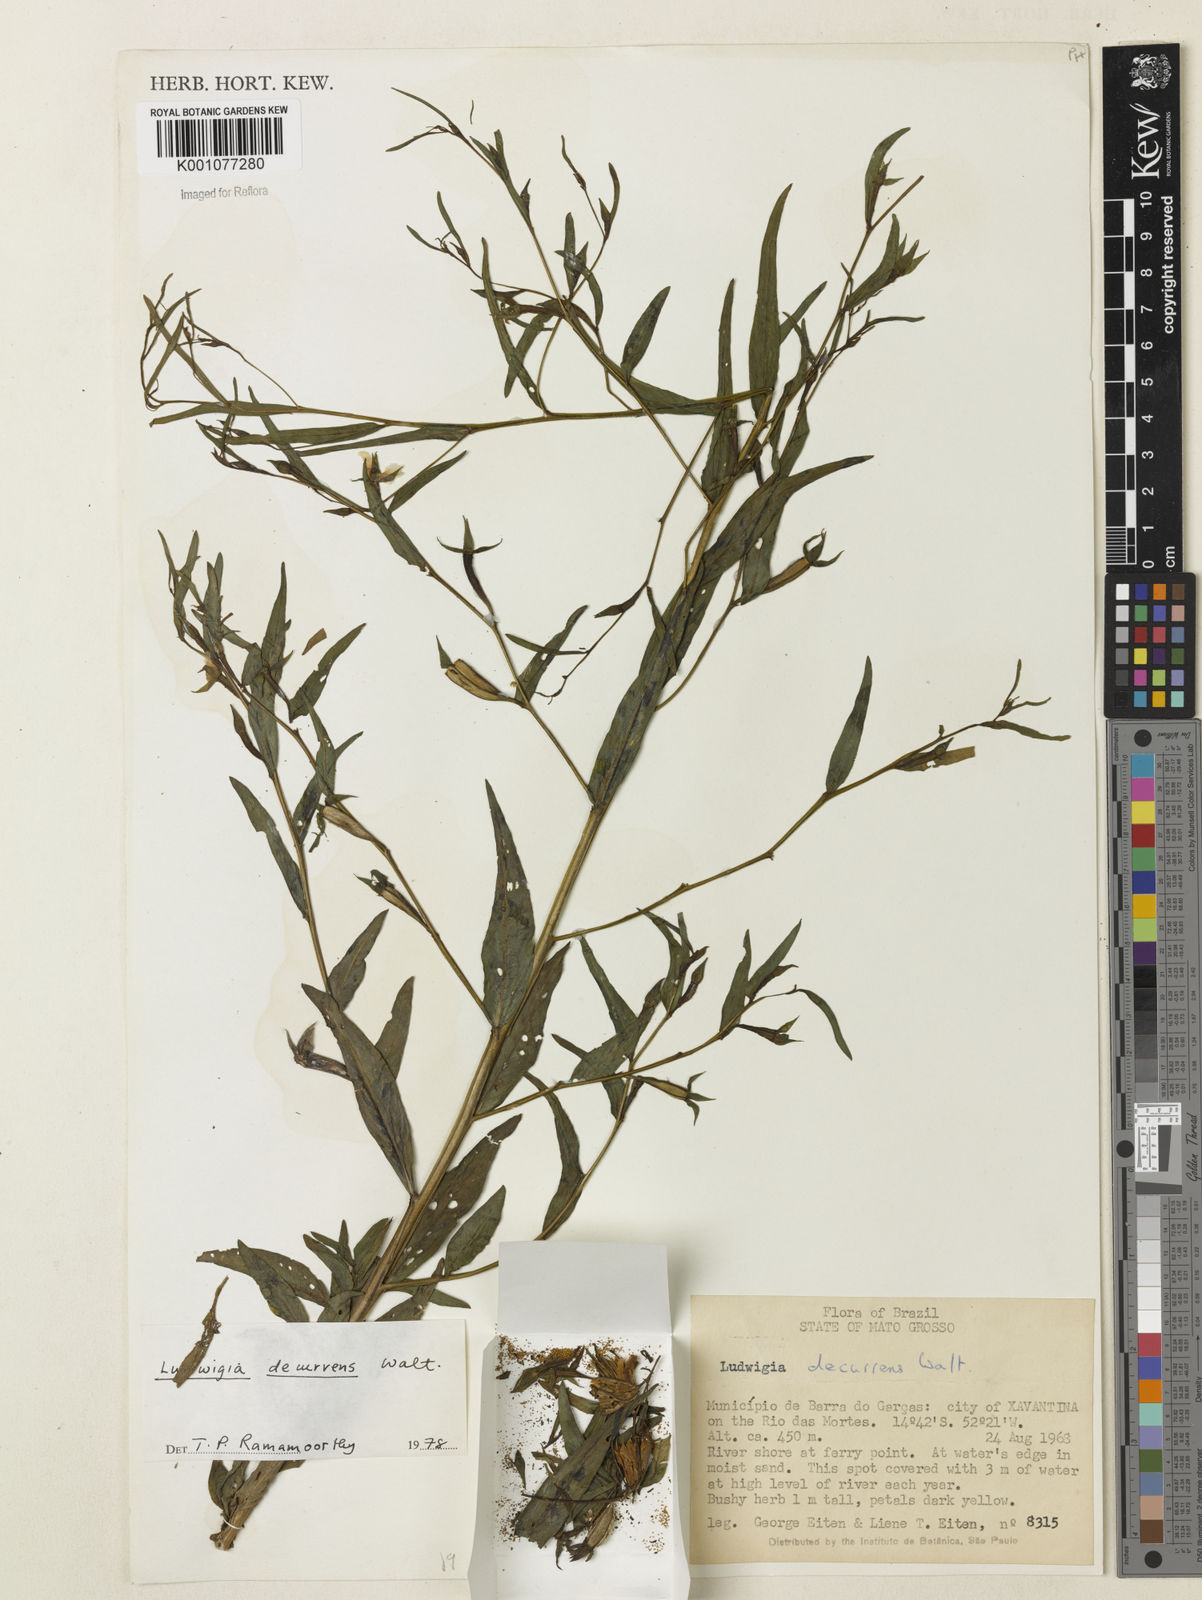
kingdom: Plantae
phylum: Tracheophyta
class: Magnoliopsida
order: Myrtales
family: Onagraceae
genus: Ludwigia
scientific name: Ludwigia decurrens
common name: Winged water-primrose
